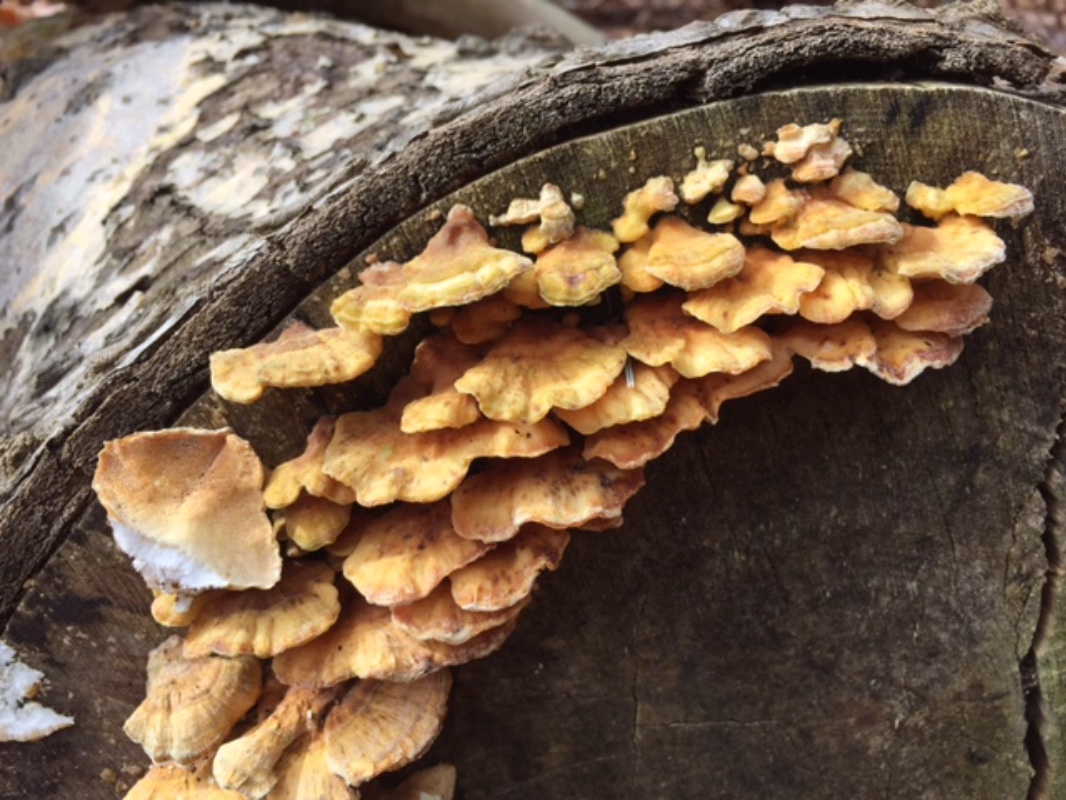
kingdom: Fungi
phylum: Basidiomycota
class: Agaricomycetes
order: Polyporales
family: Polyporaceae
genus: Trametes
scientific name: Trametes ochracea
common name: bæltet læderporesvamp
